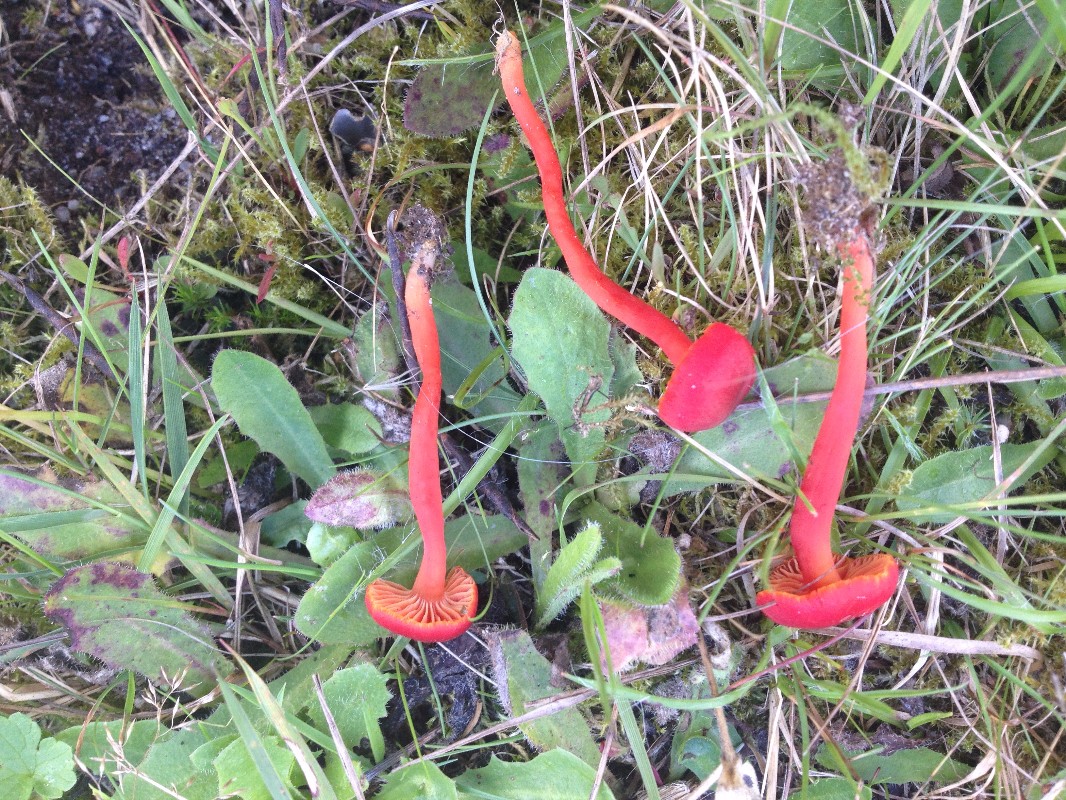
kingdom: Fungi
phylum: Basidiomycota
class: Agaricomycetes
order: Agaricales
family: Hygrophoraceae
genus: Hygrocybe
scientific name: Hygrocybe phaeococcinea
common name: sortdugget vokshat
